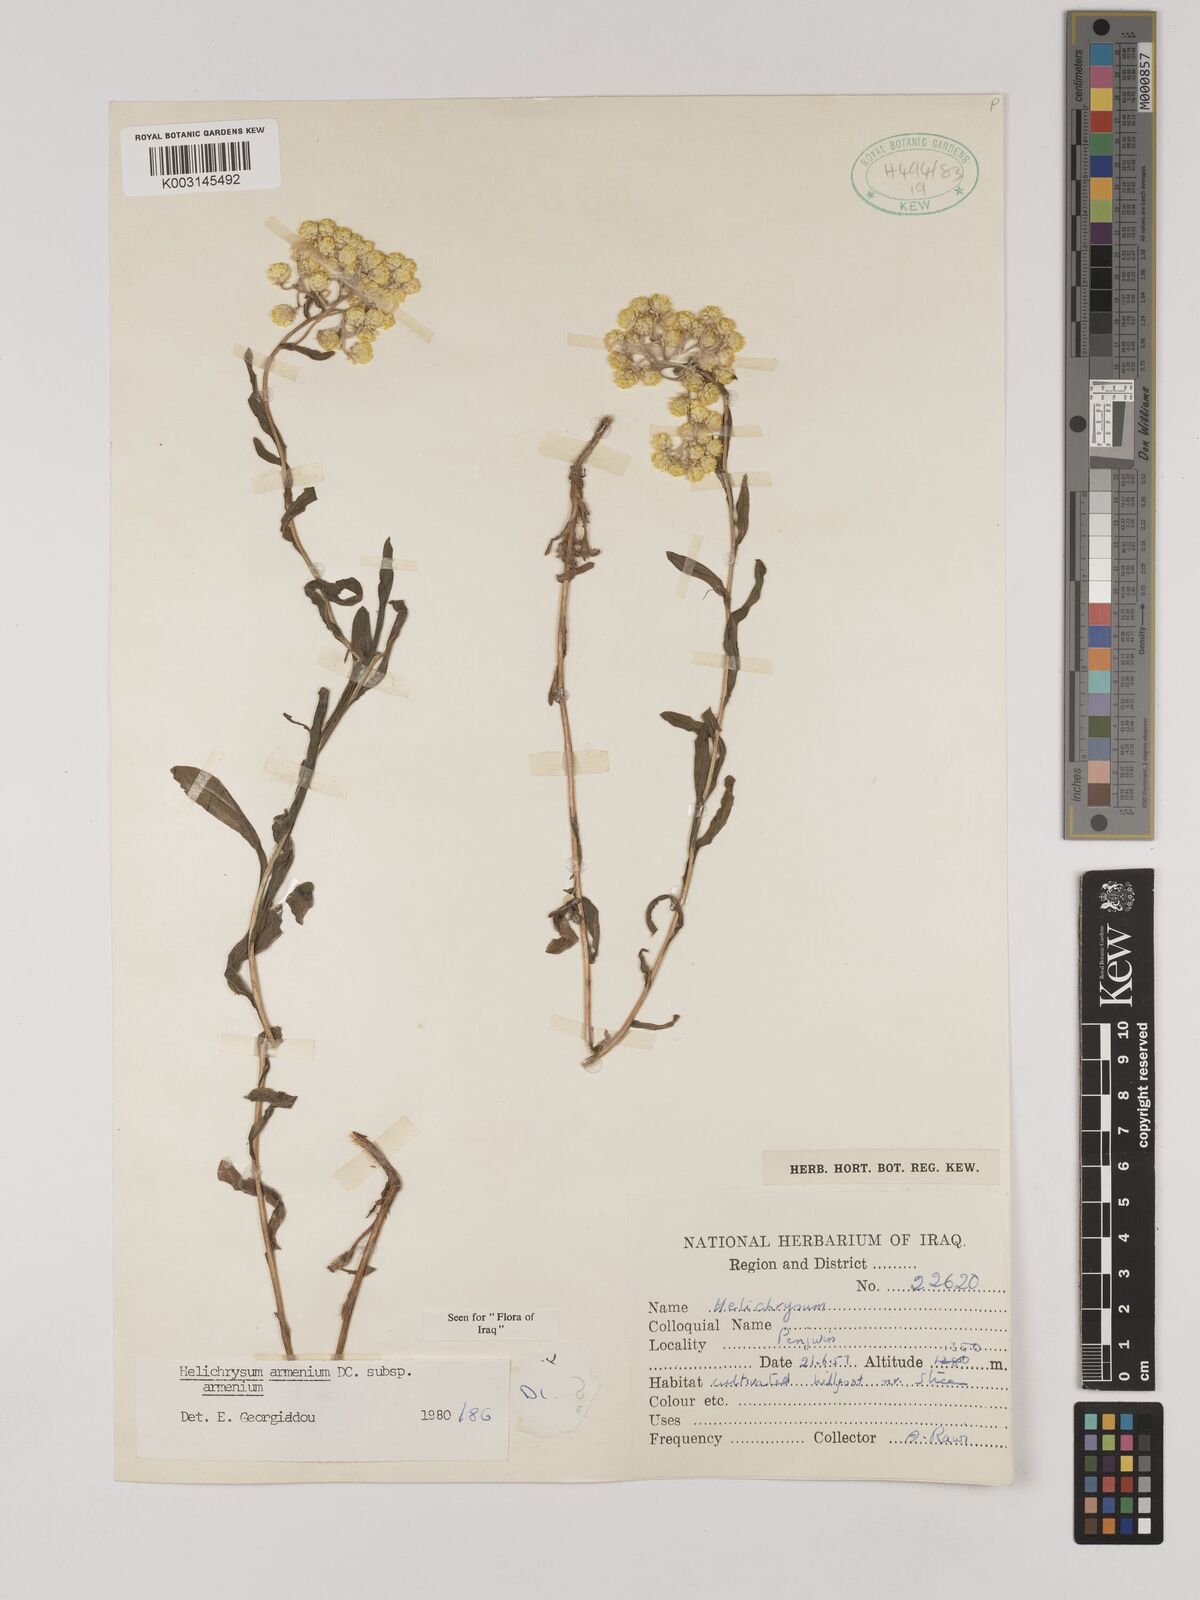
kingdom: Plantae
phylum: Tracheophyta
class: Magnoliopsida
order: Asterales
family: Asteraceae
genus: Helichrysum
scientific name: Helichrysum armenium
